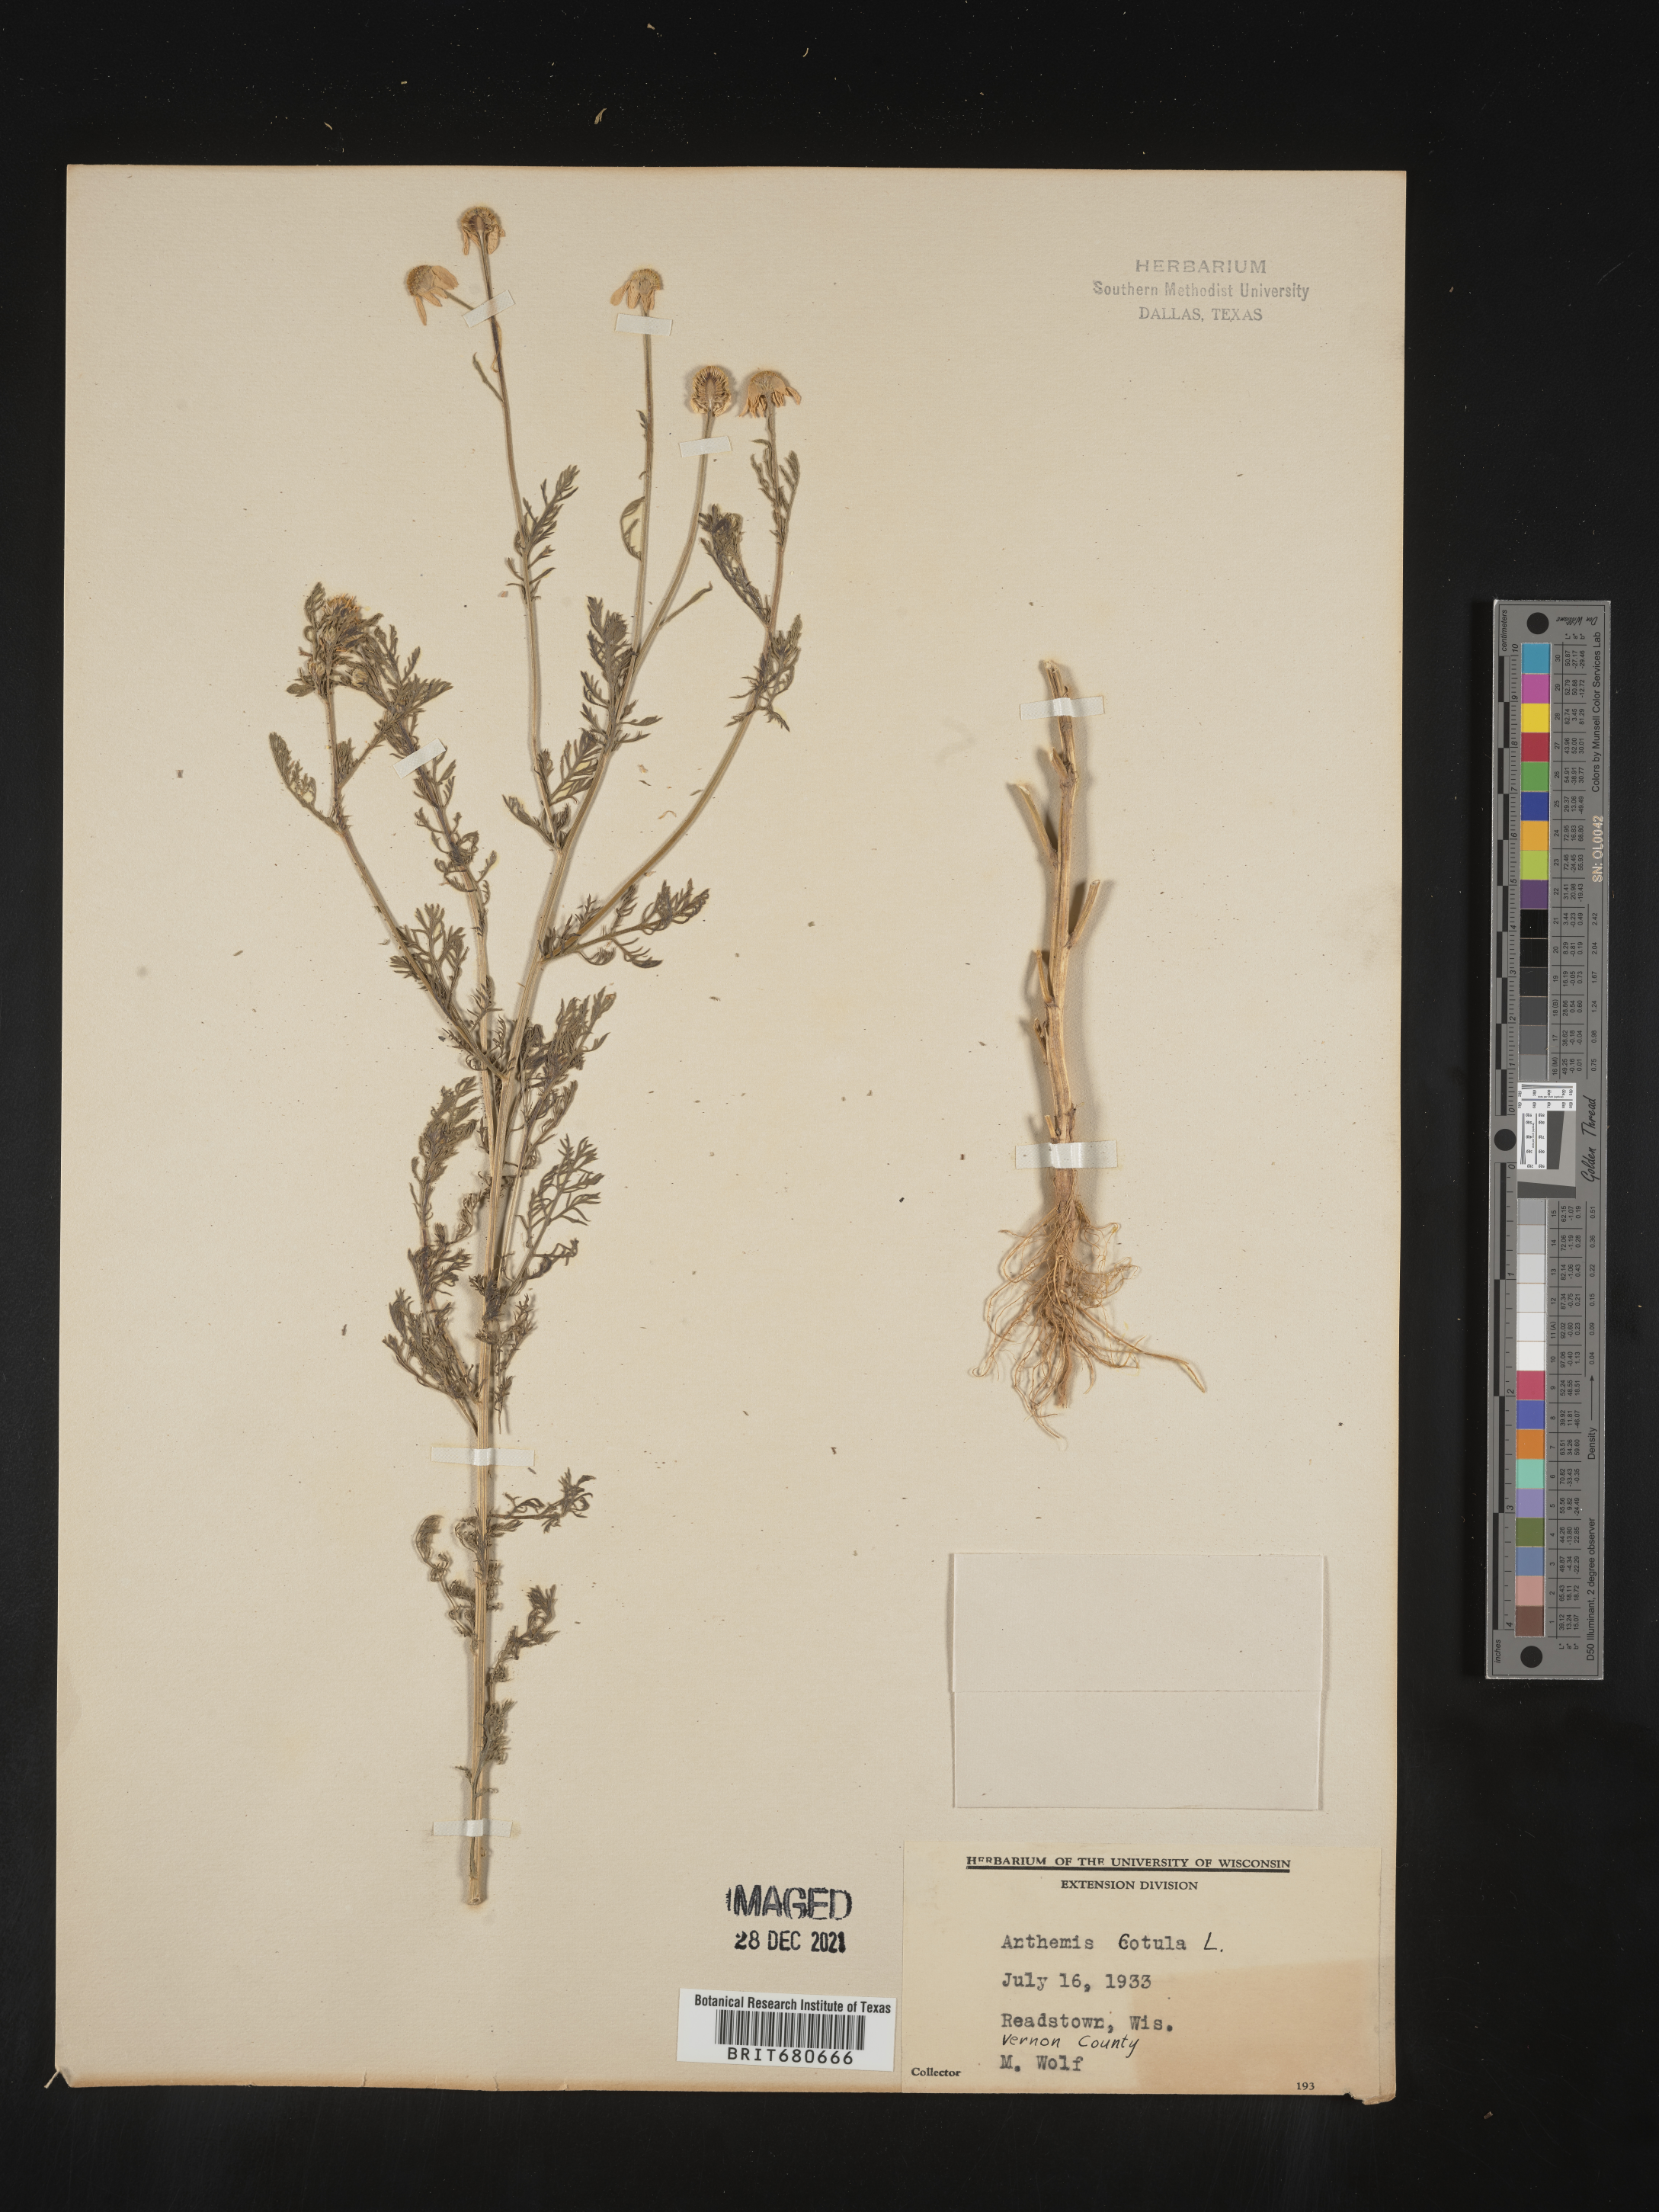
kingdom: Plantae
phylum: Tracheophyta
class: Magnoliopsida
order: Asterales
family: Asteraceae
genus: Anthemis
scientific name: Anthemis cotula
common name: Stinking chamomile
